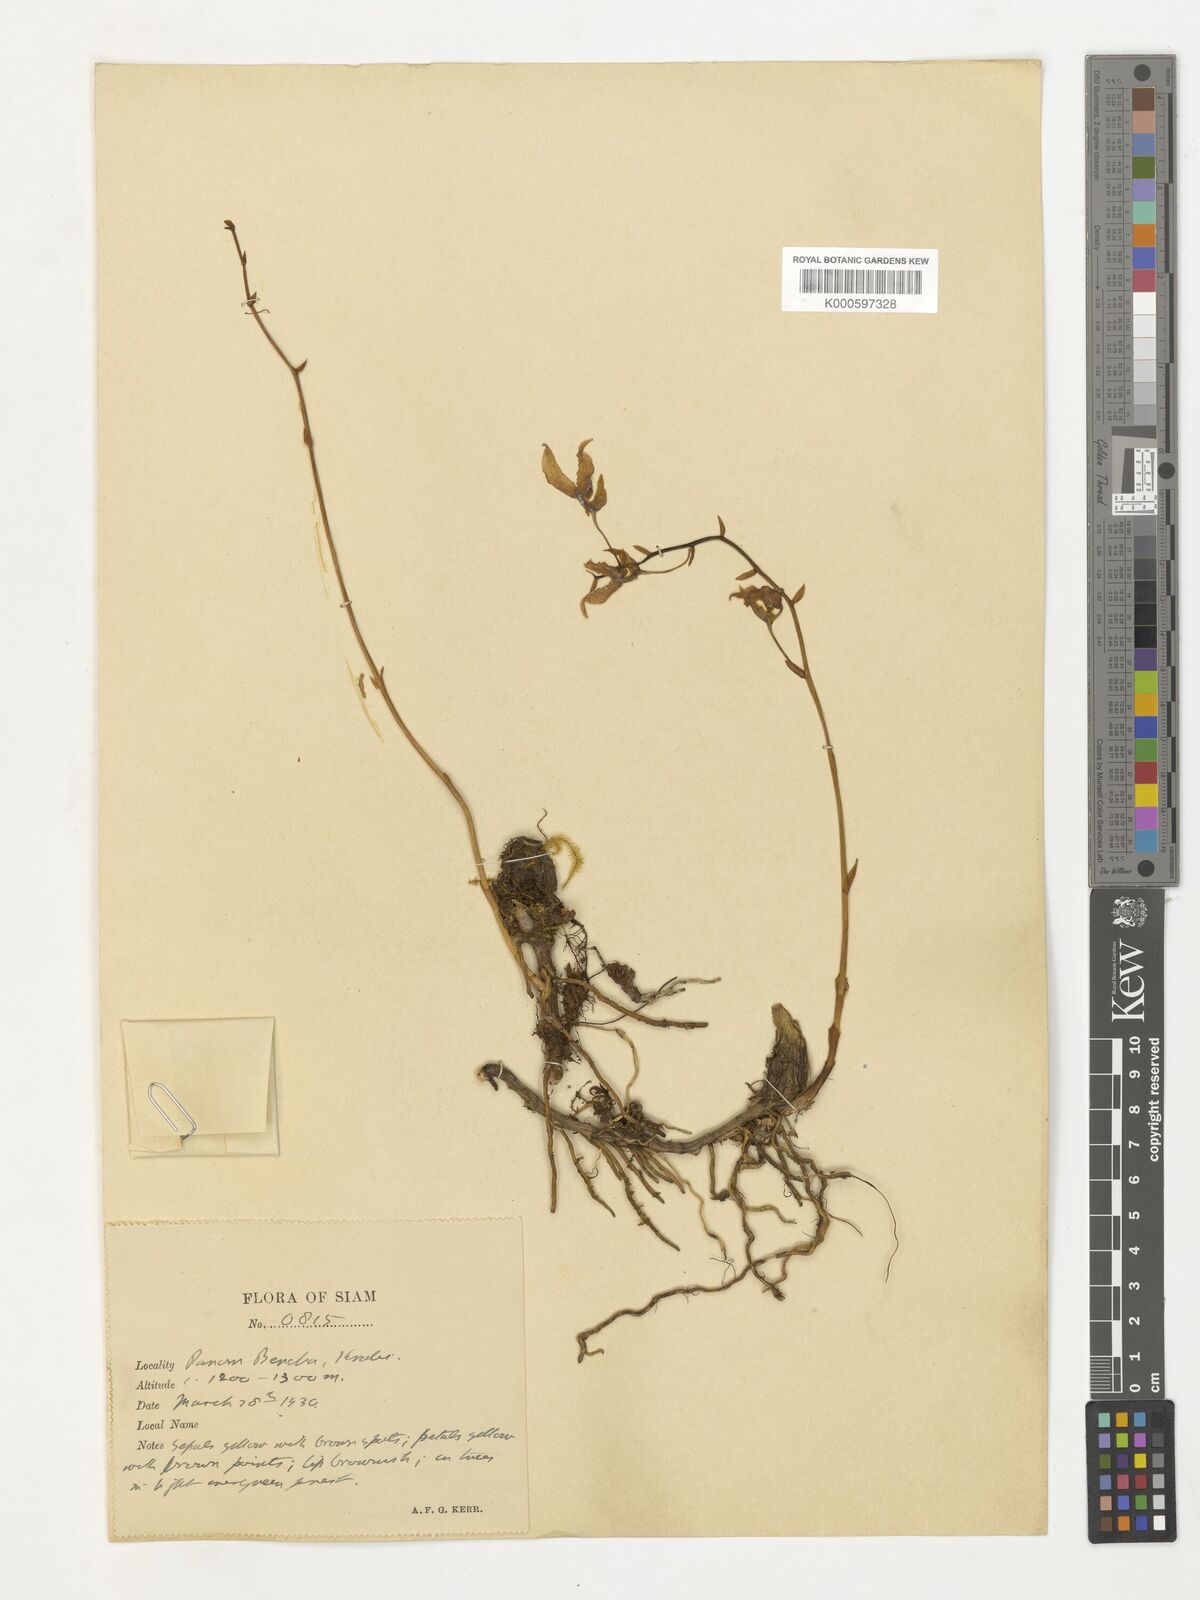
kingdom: Plantae
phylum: Tracheophyta
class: Liliopsida
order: Asparagales
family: Orchidaceae
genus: Bulbophyllum
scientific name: Bulbophyllum crabro
